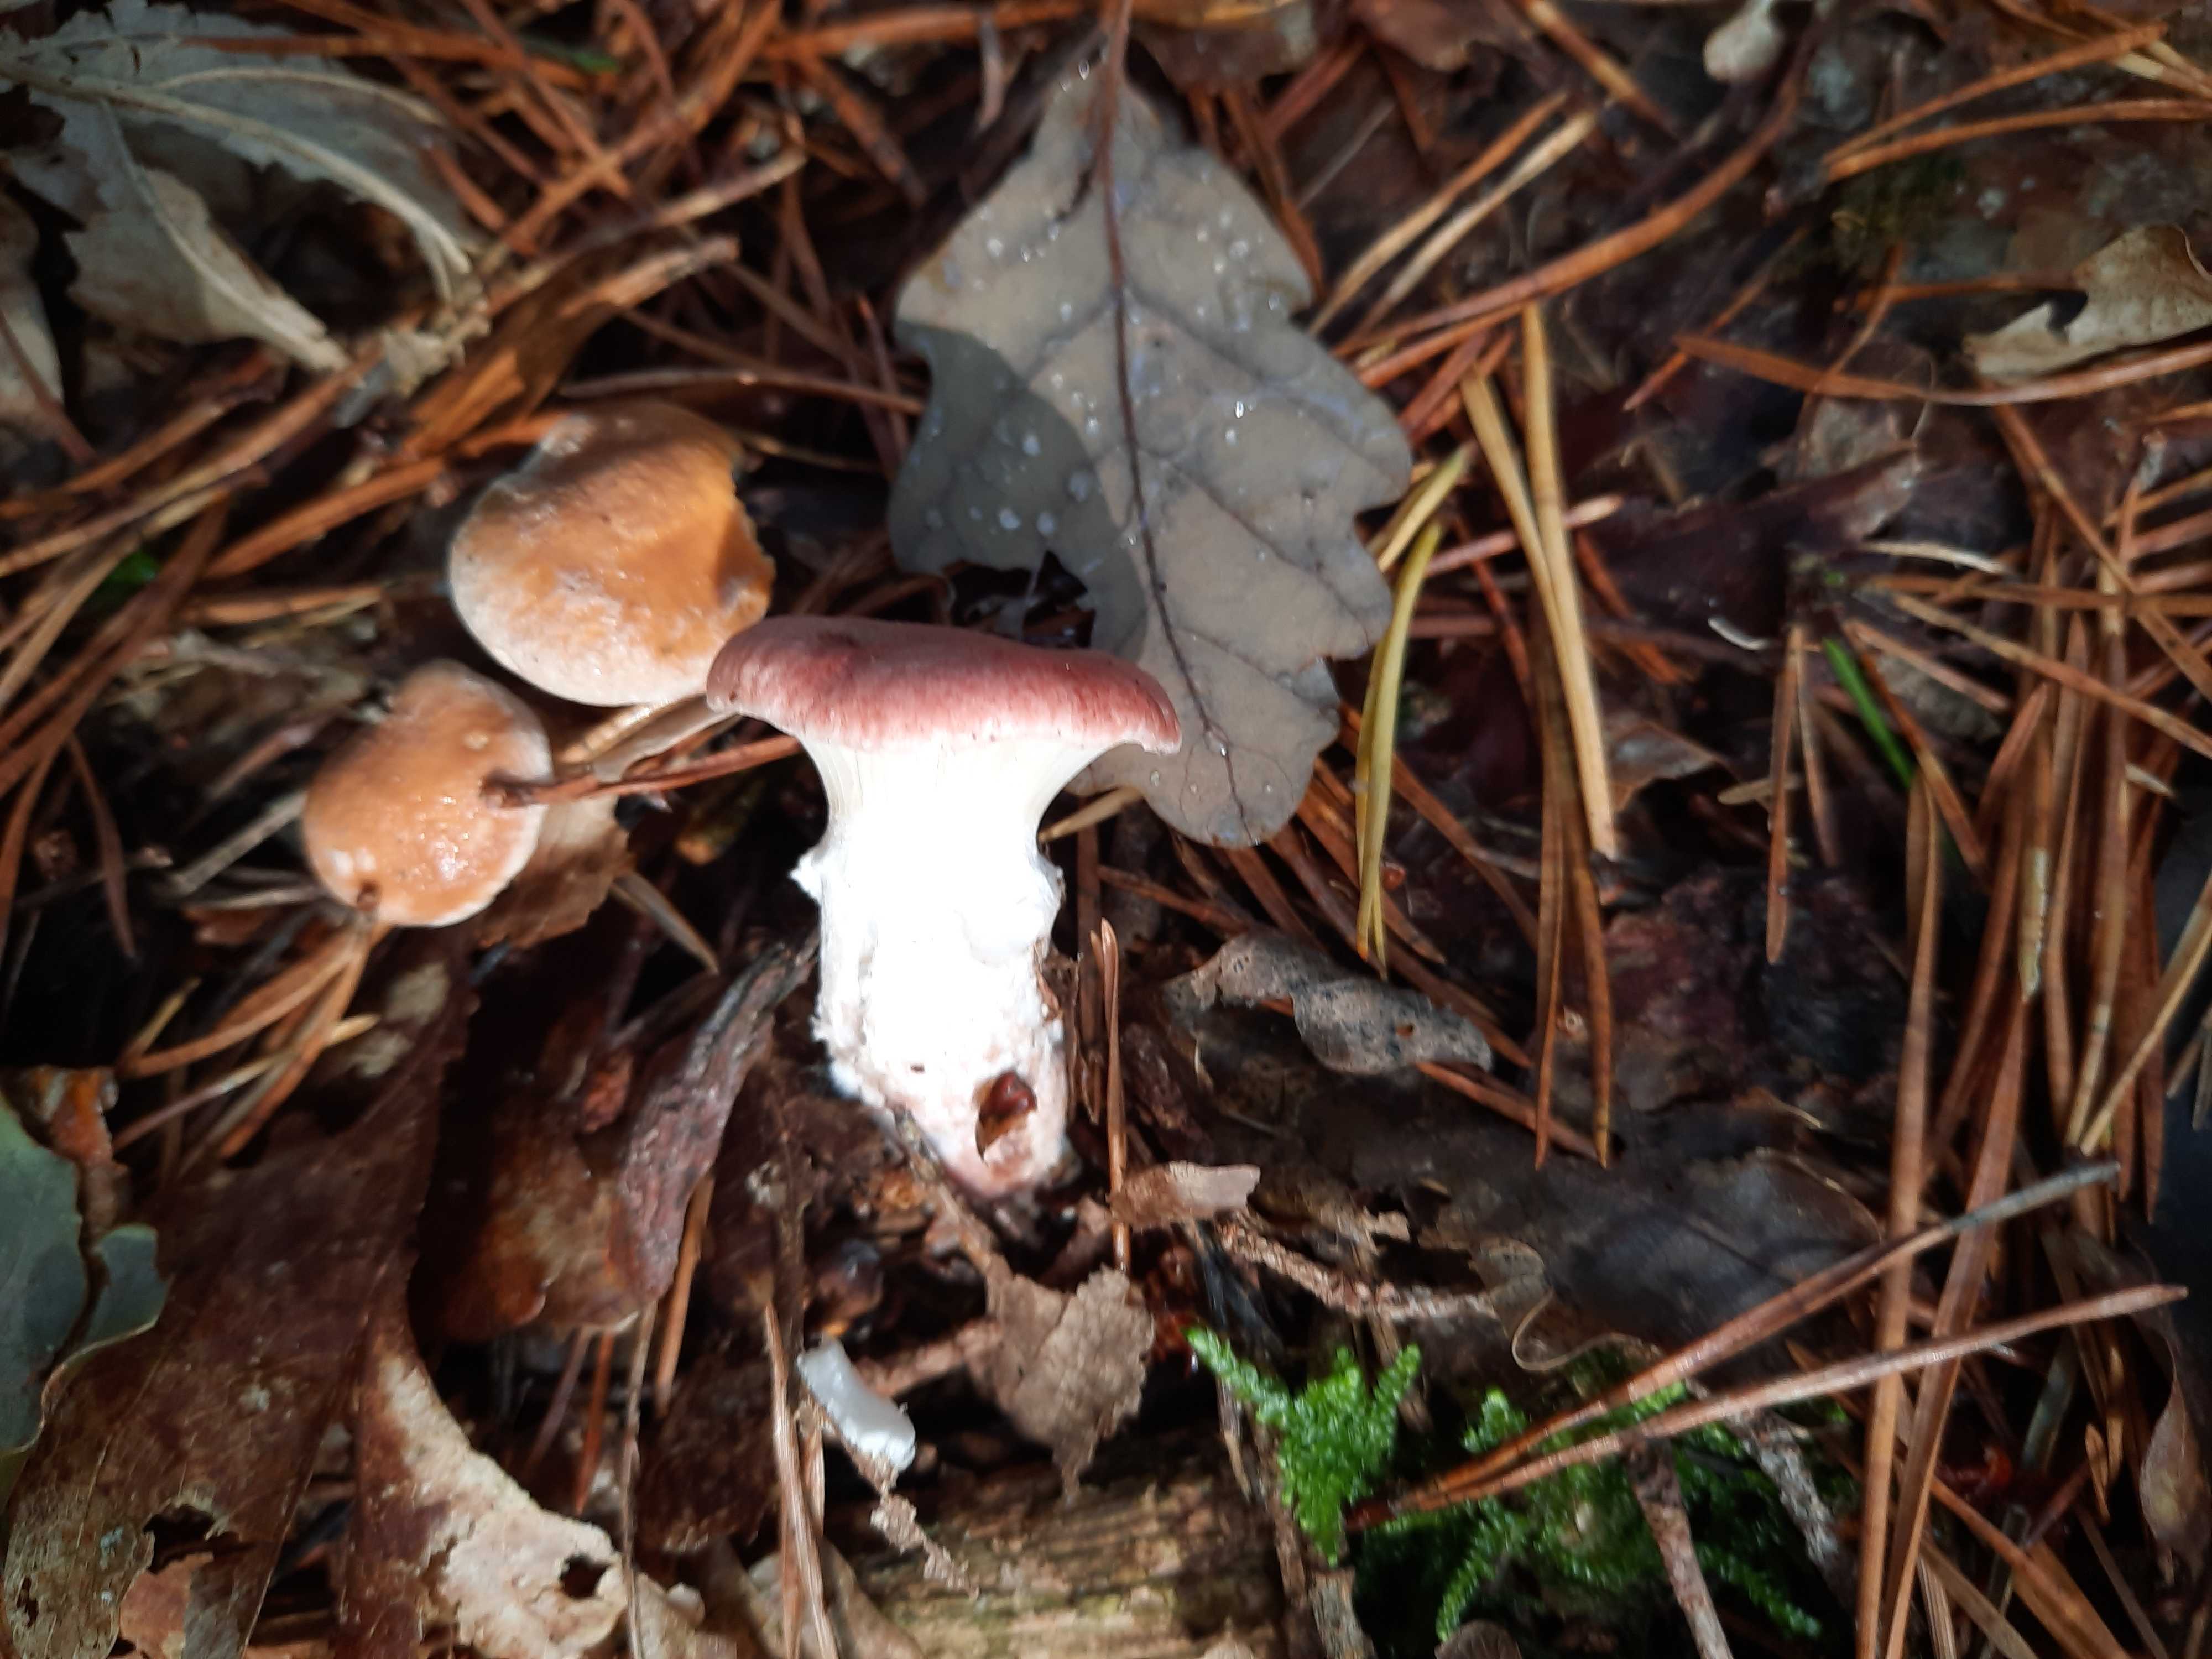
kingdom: Fungi
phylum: Basidiomycota
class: Agaricomycetes
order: Boletales
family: Gomphidiaceae
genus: Gomphidius
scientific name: Gomphidius roseus
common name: rosenrød slimslør
